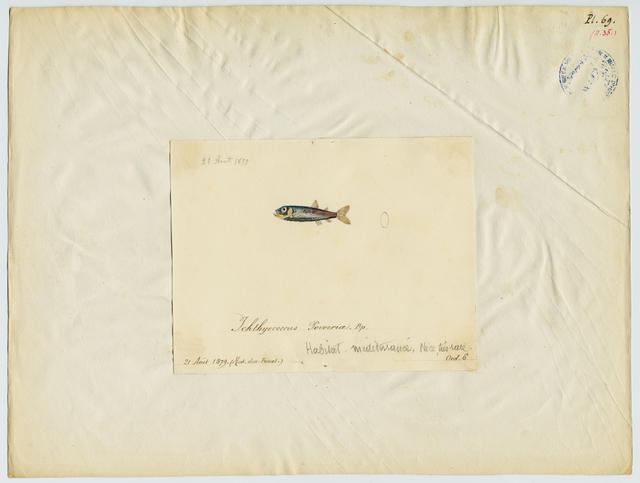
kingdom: Animalia
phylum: Chordata
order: Stomiiformes
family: Phosichthyidae
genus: Vinciguerria
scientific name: Vinciguerria poweriae
